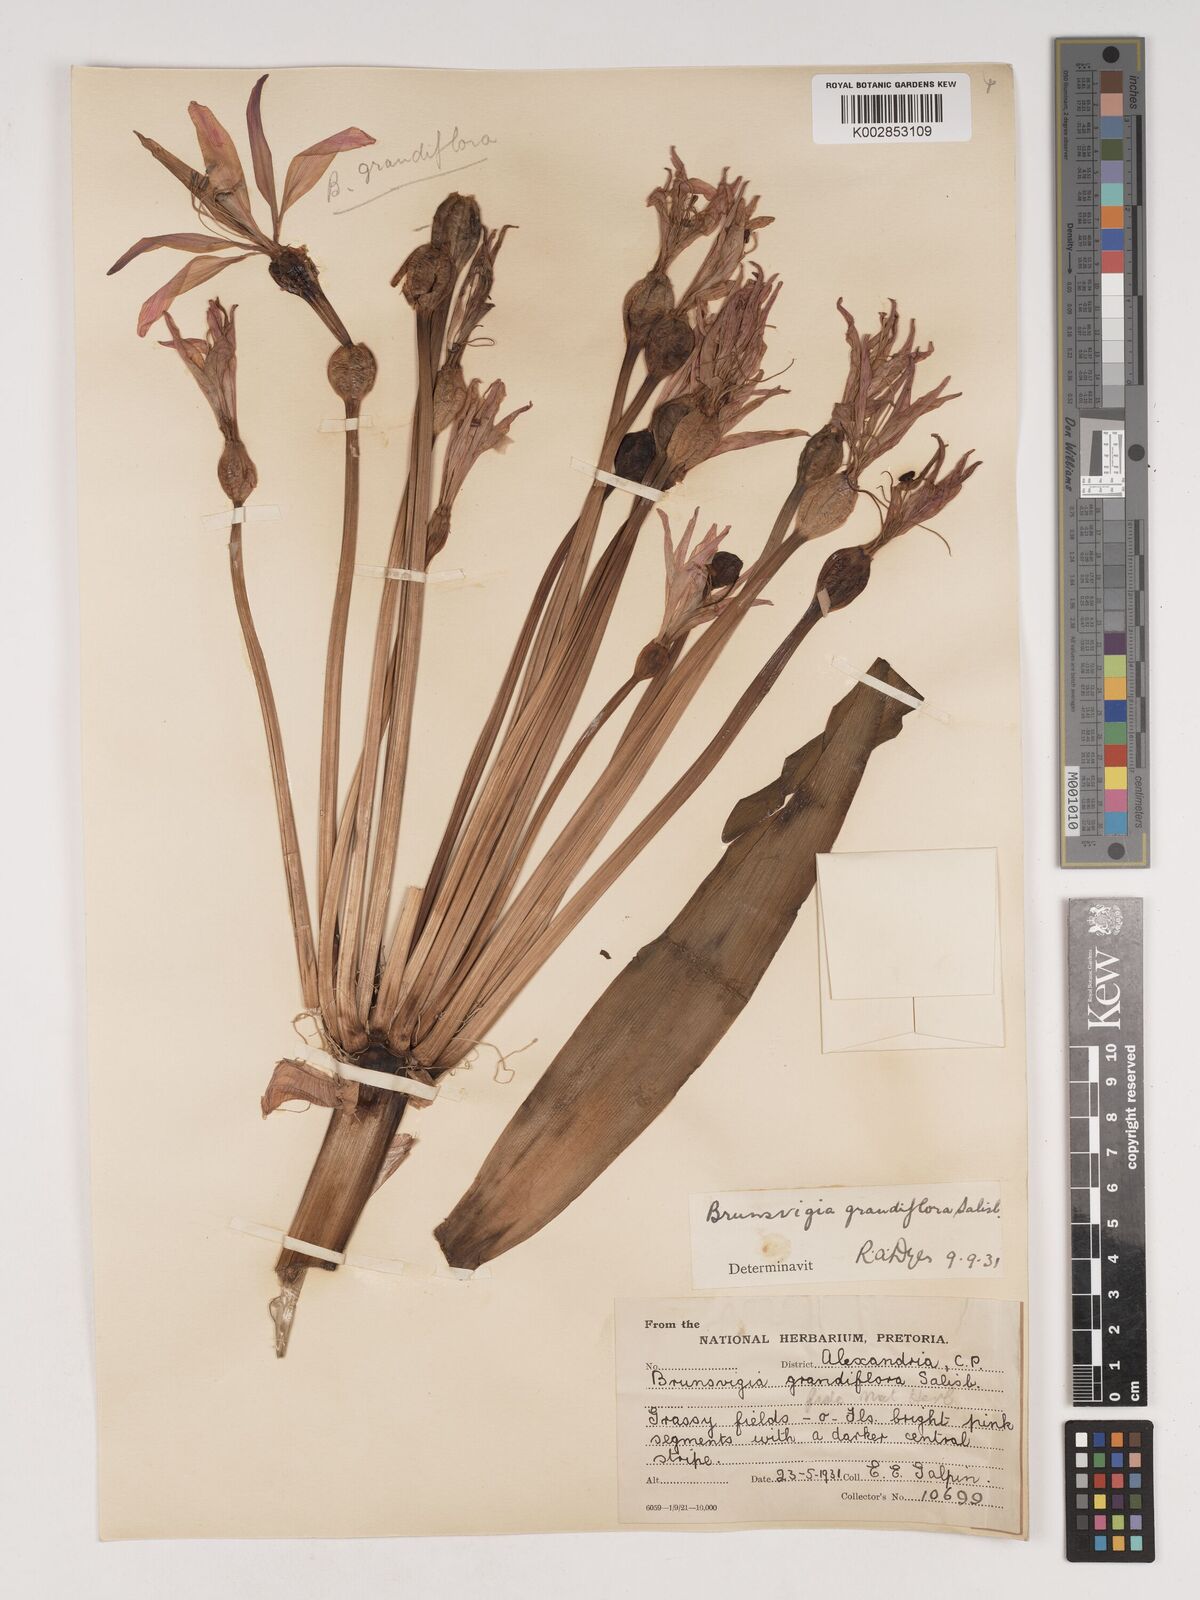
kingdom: Plantae
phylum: Tracheophyta
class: Liliopsida
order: Asparagales
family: Amaryllidaceae
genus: Brunsvigia
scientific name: Brunsvigia grandiflora
